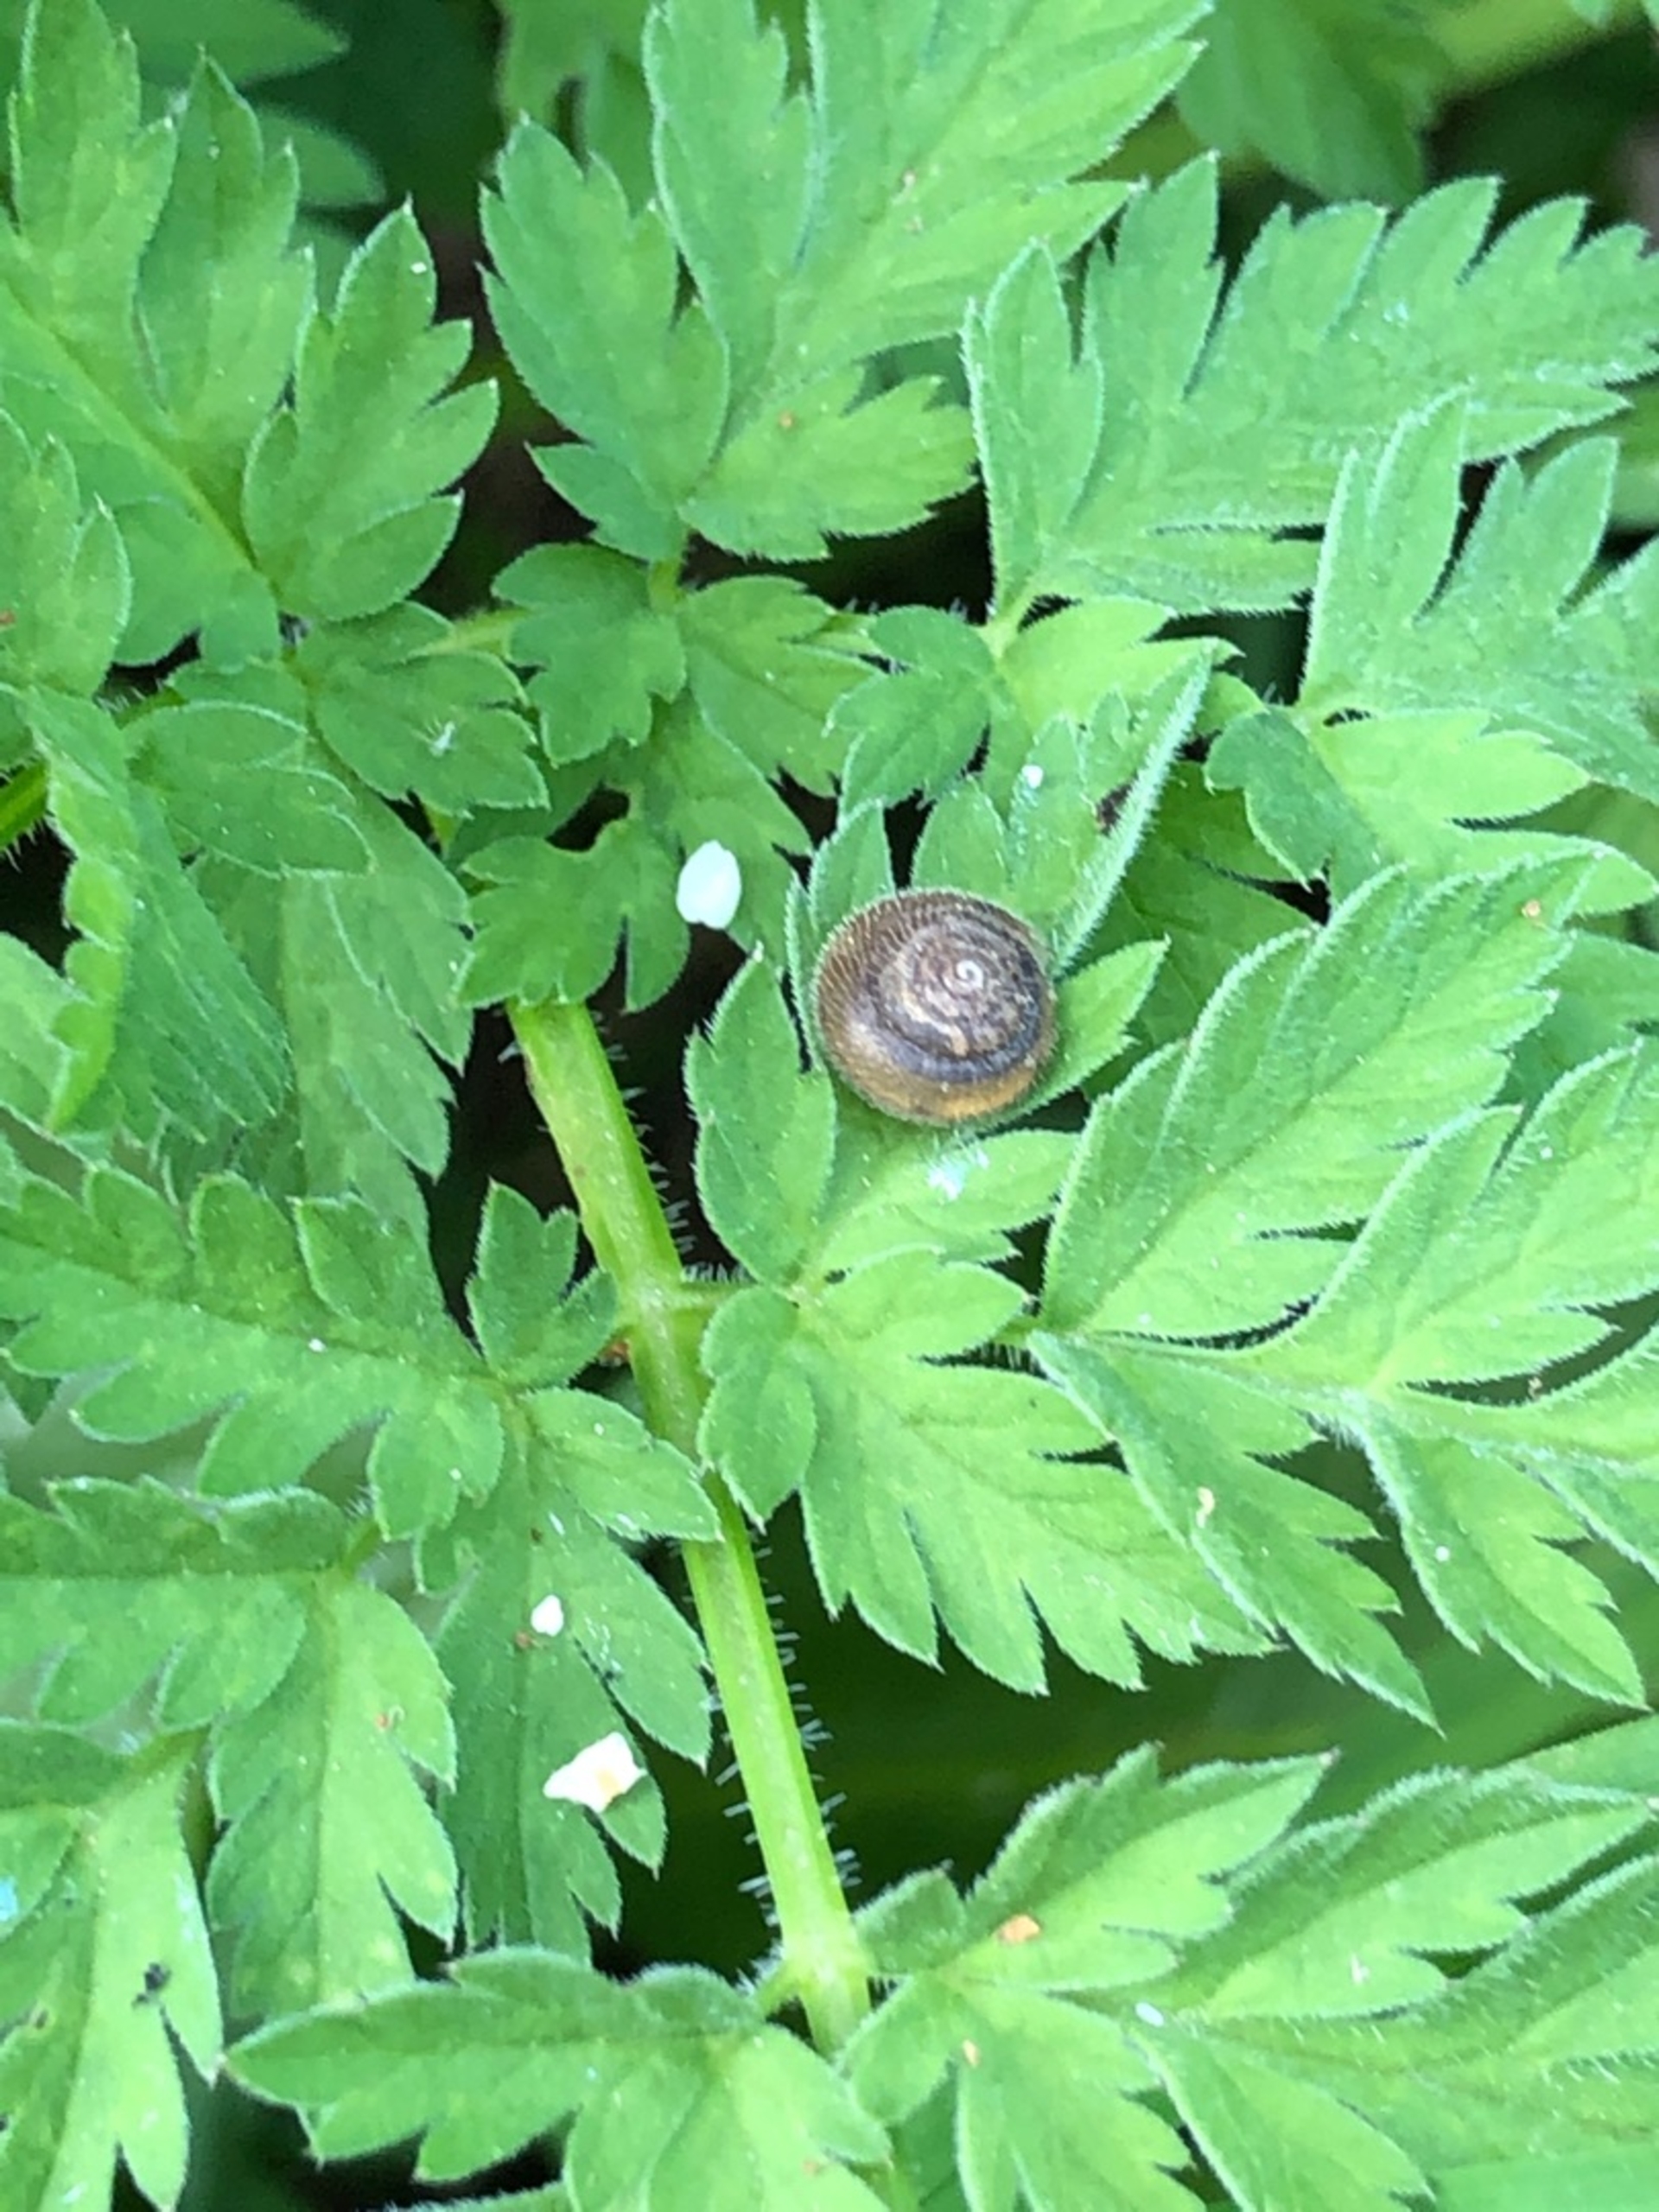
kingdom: Animalia
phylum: Mollusca
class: Gastropoda
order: Stylommatophora
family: Hygromiidae
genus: Trochulus
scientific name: Trochulus hispidus
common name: Håret snegl
